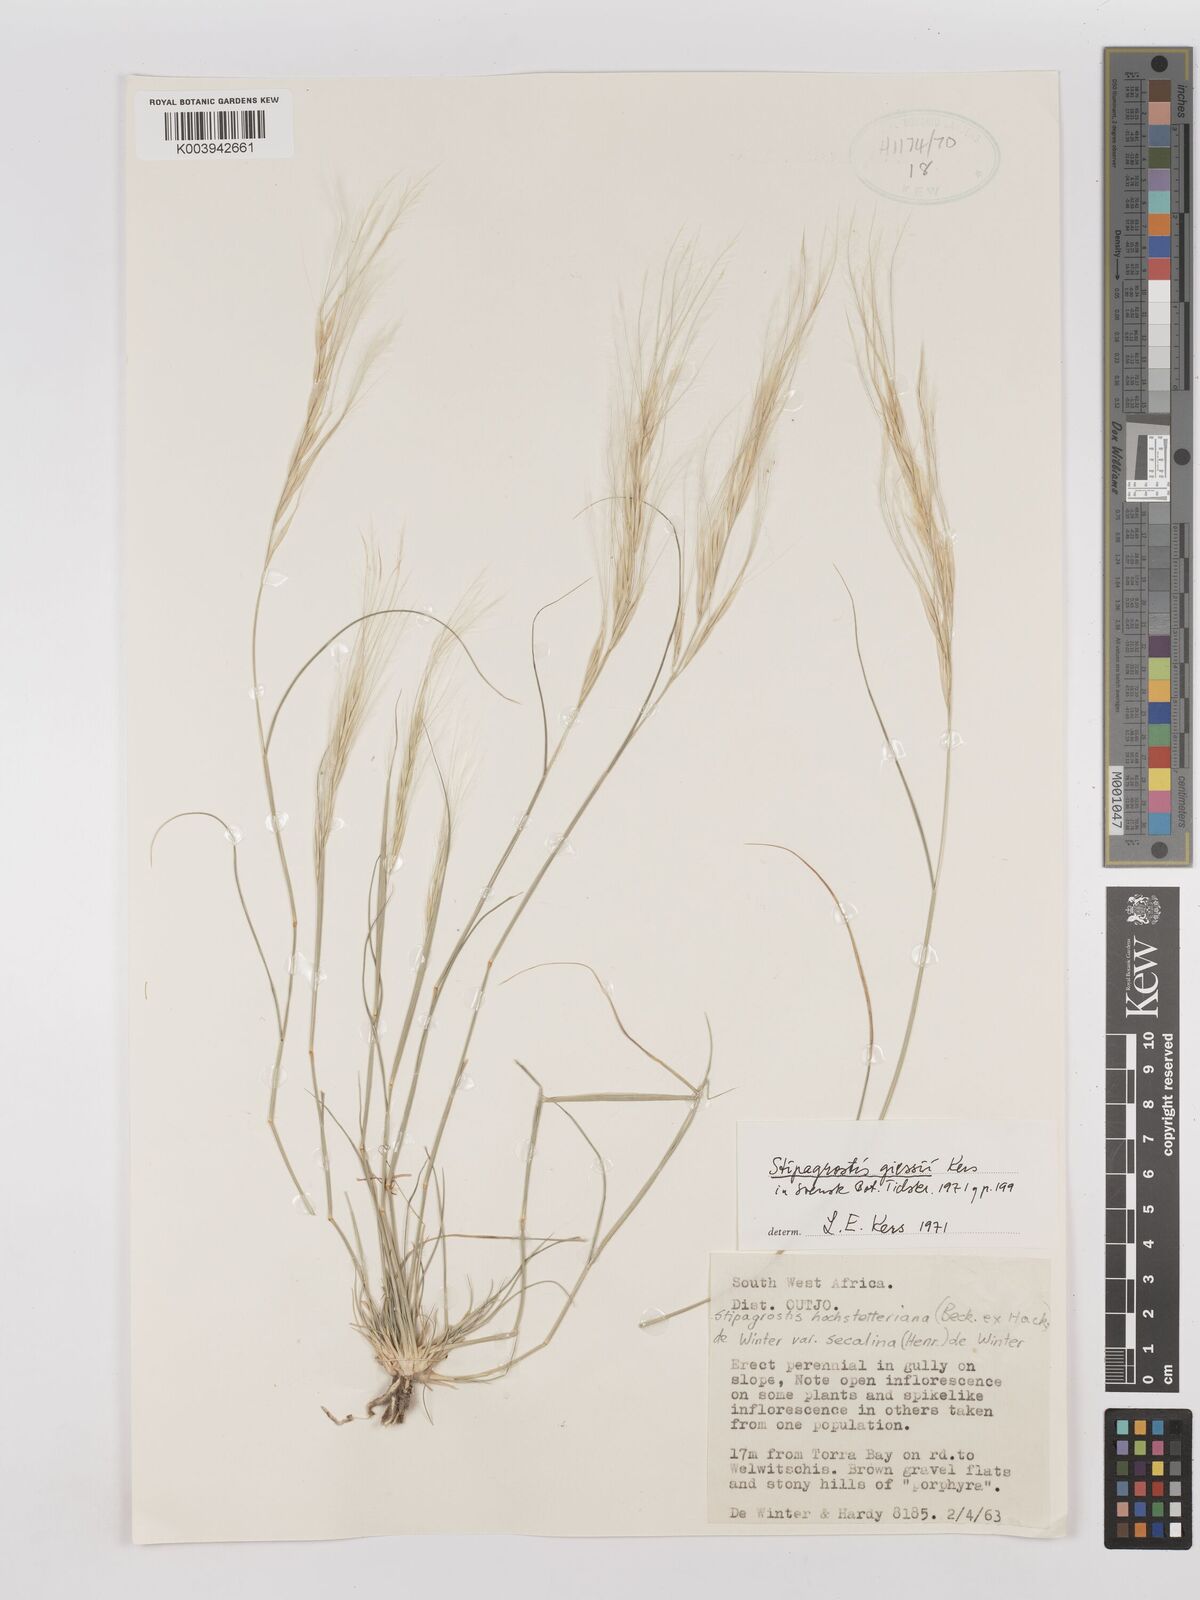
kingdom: Plantae
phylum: Tracheophyta
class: Liliopsida
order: Poales
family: Poaceae
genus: Stipagrostis
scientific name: Stipagrostis giessii
